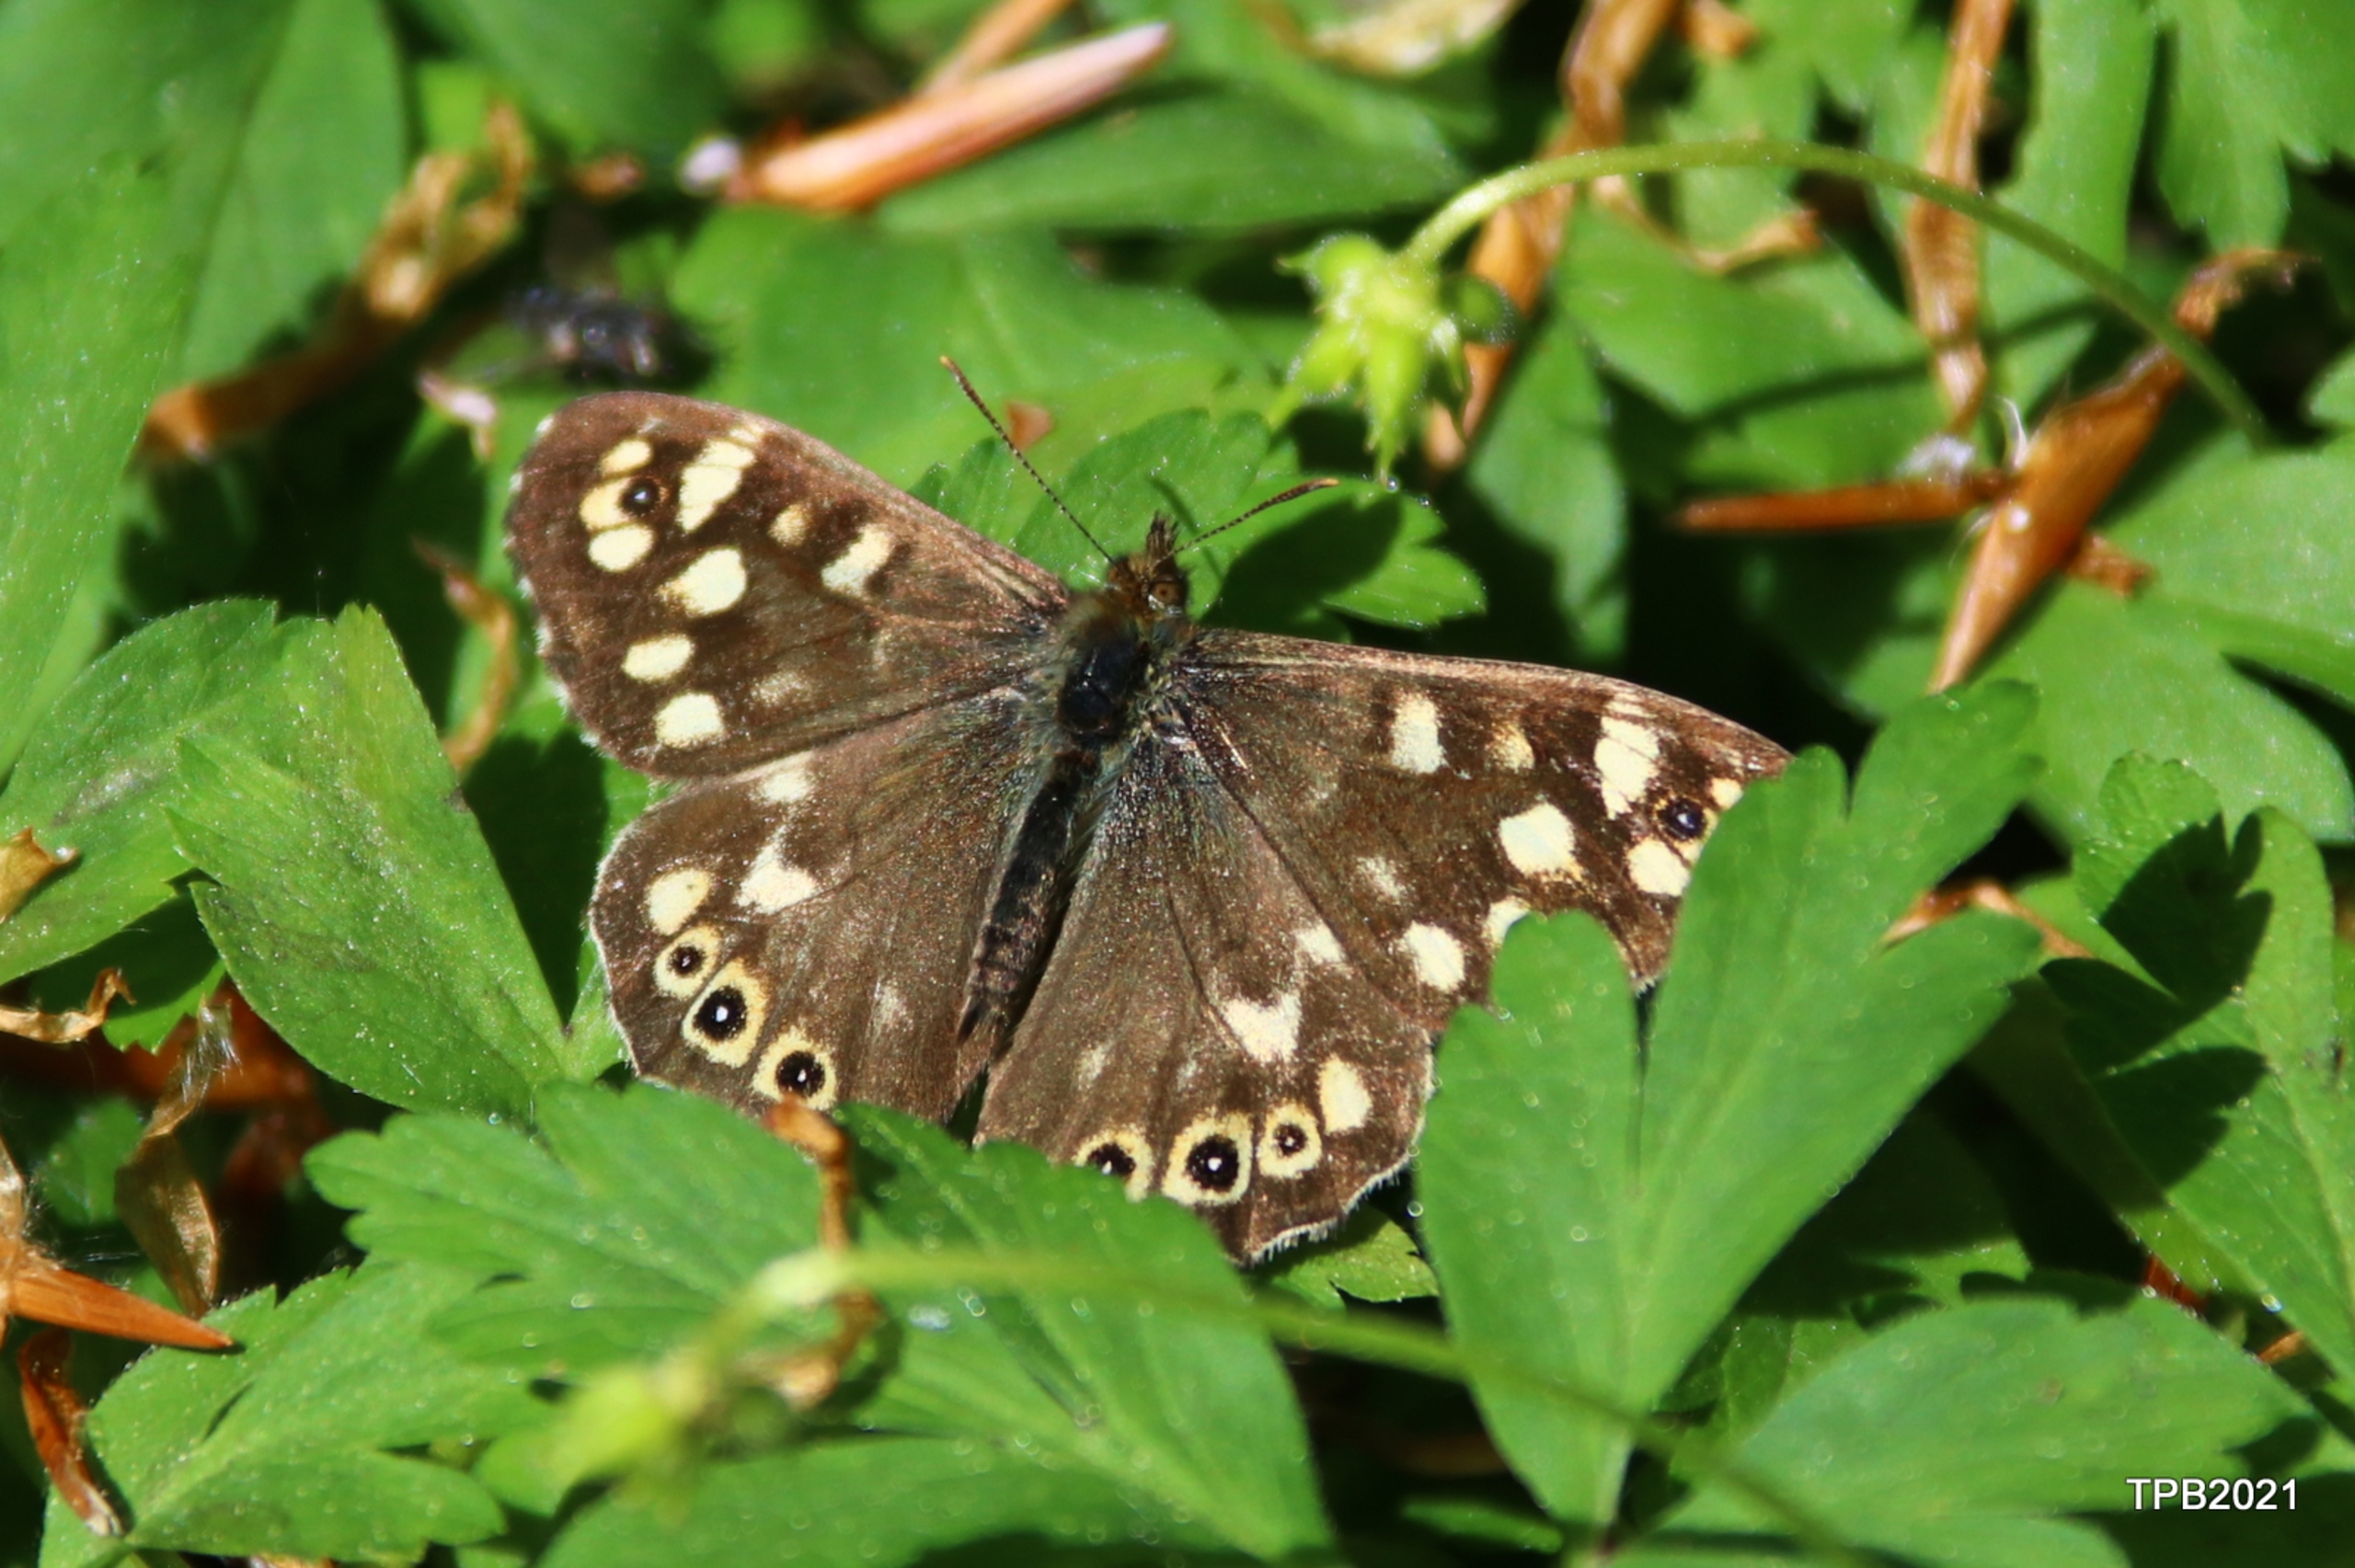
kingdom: Animalia
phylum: Arthropoda
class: Insecta
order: Lepidoptera
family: Nymphalidae
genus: Pararge
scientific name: Pararge aegeria
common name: Skovrandøje
